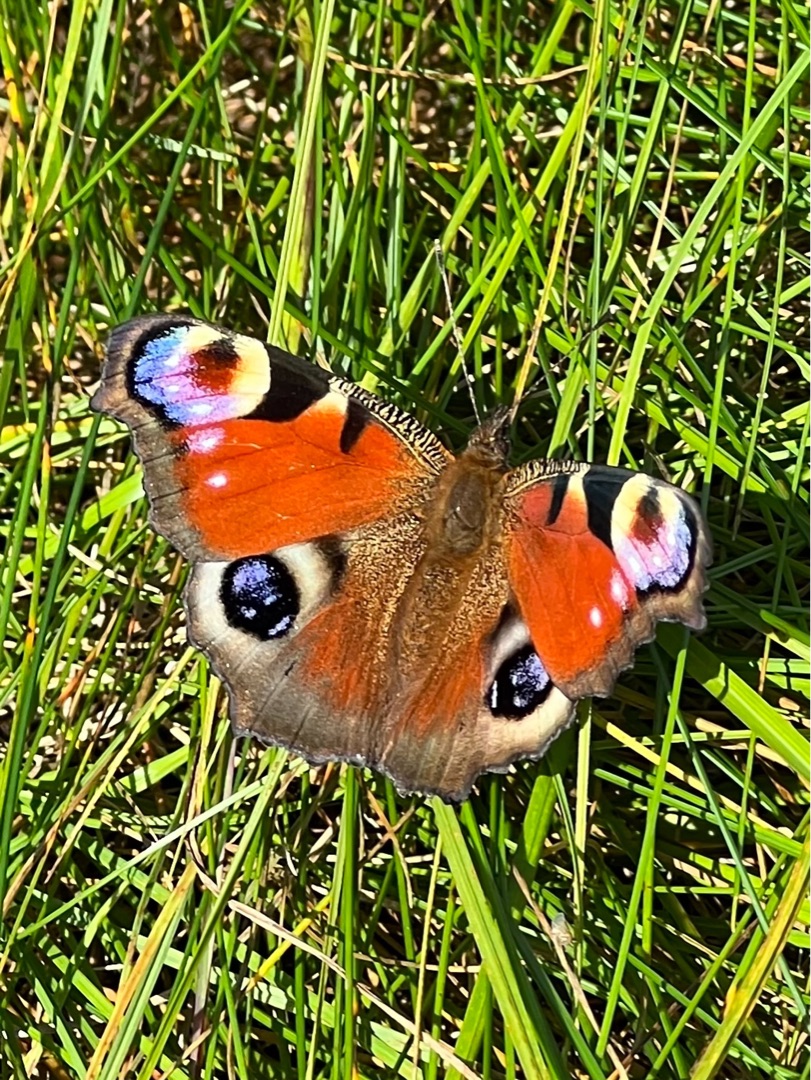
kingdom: Animalia
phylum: Arthropoda
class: Insecta
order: Lepidoptera
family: Nymphalidae
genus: Aglais
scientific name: Aglais io
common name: Dagpåfugleøje
